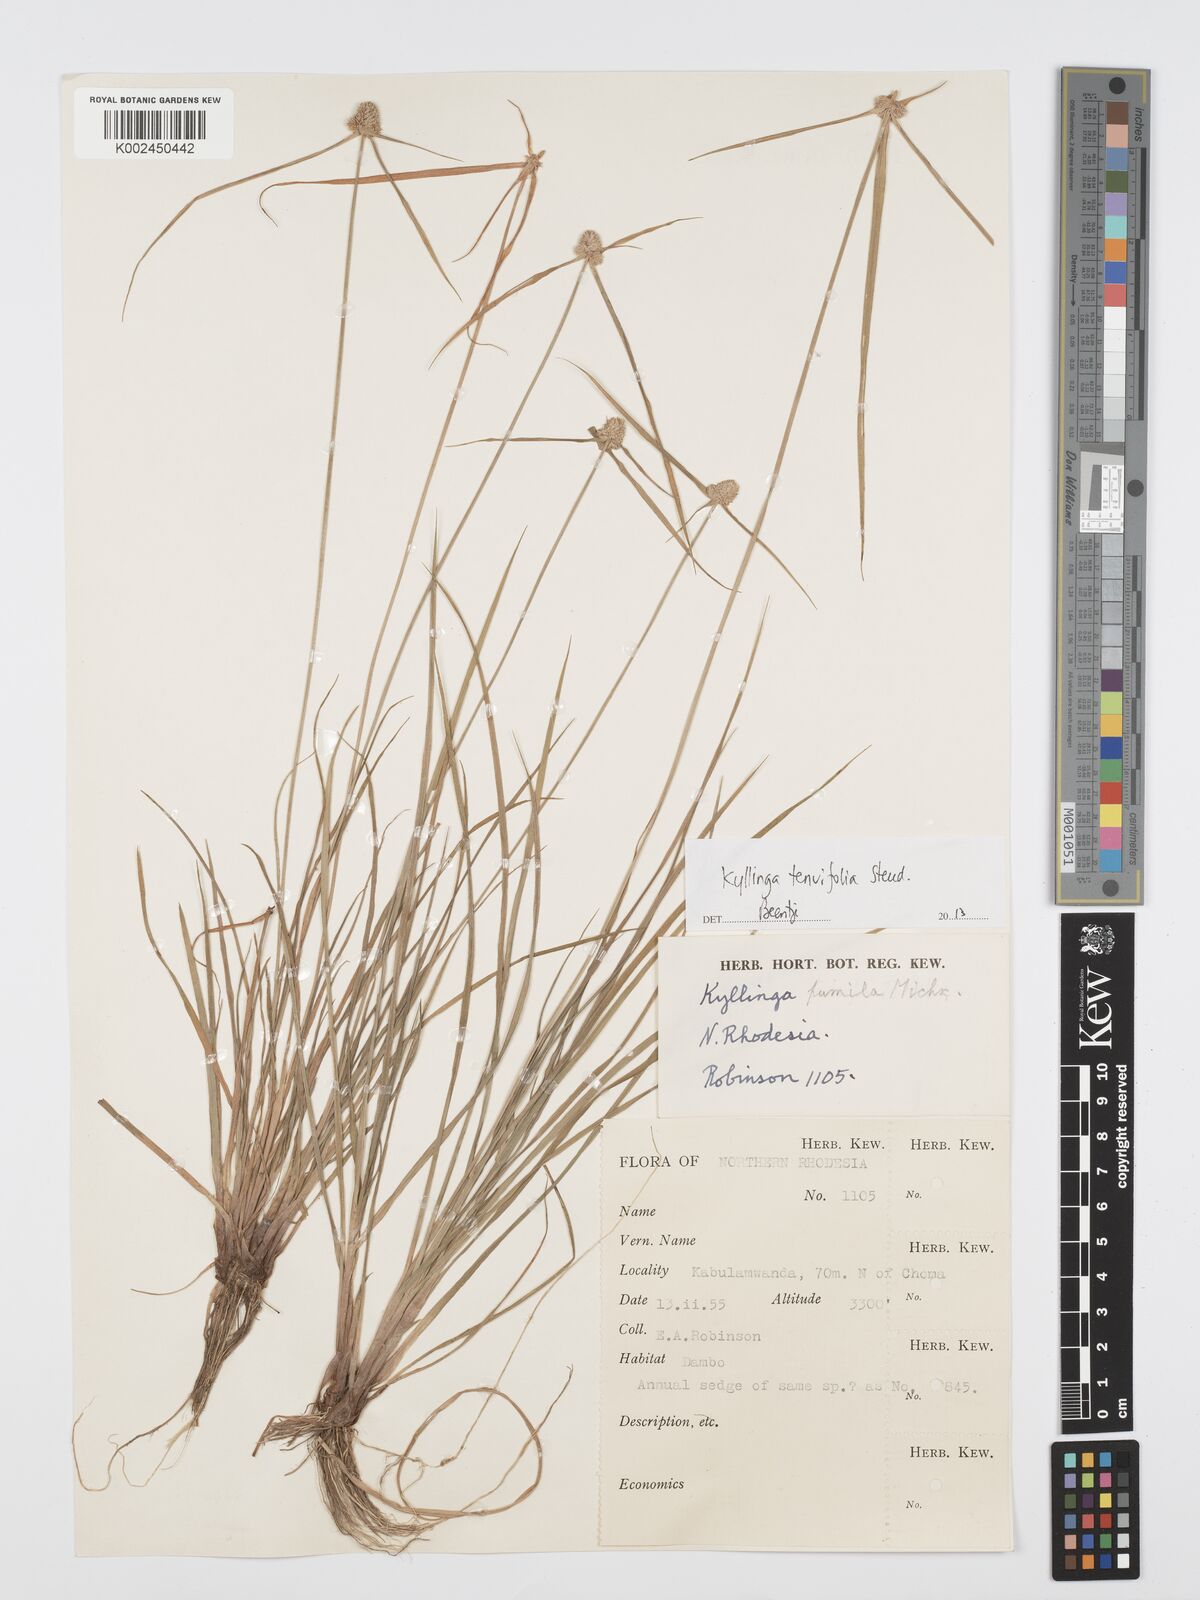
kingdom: Plantae
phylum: Tracheophyta
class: Liliopsida
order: Poales
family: Cyperaceae
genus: Cyperus
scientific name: Cyperus tenuifolius
